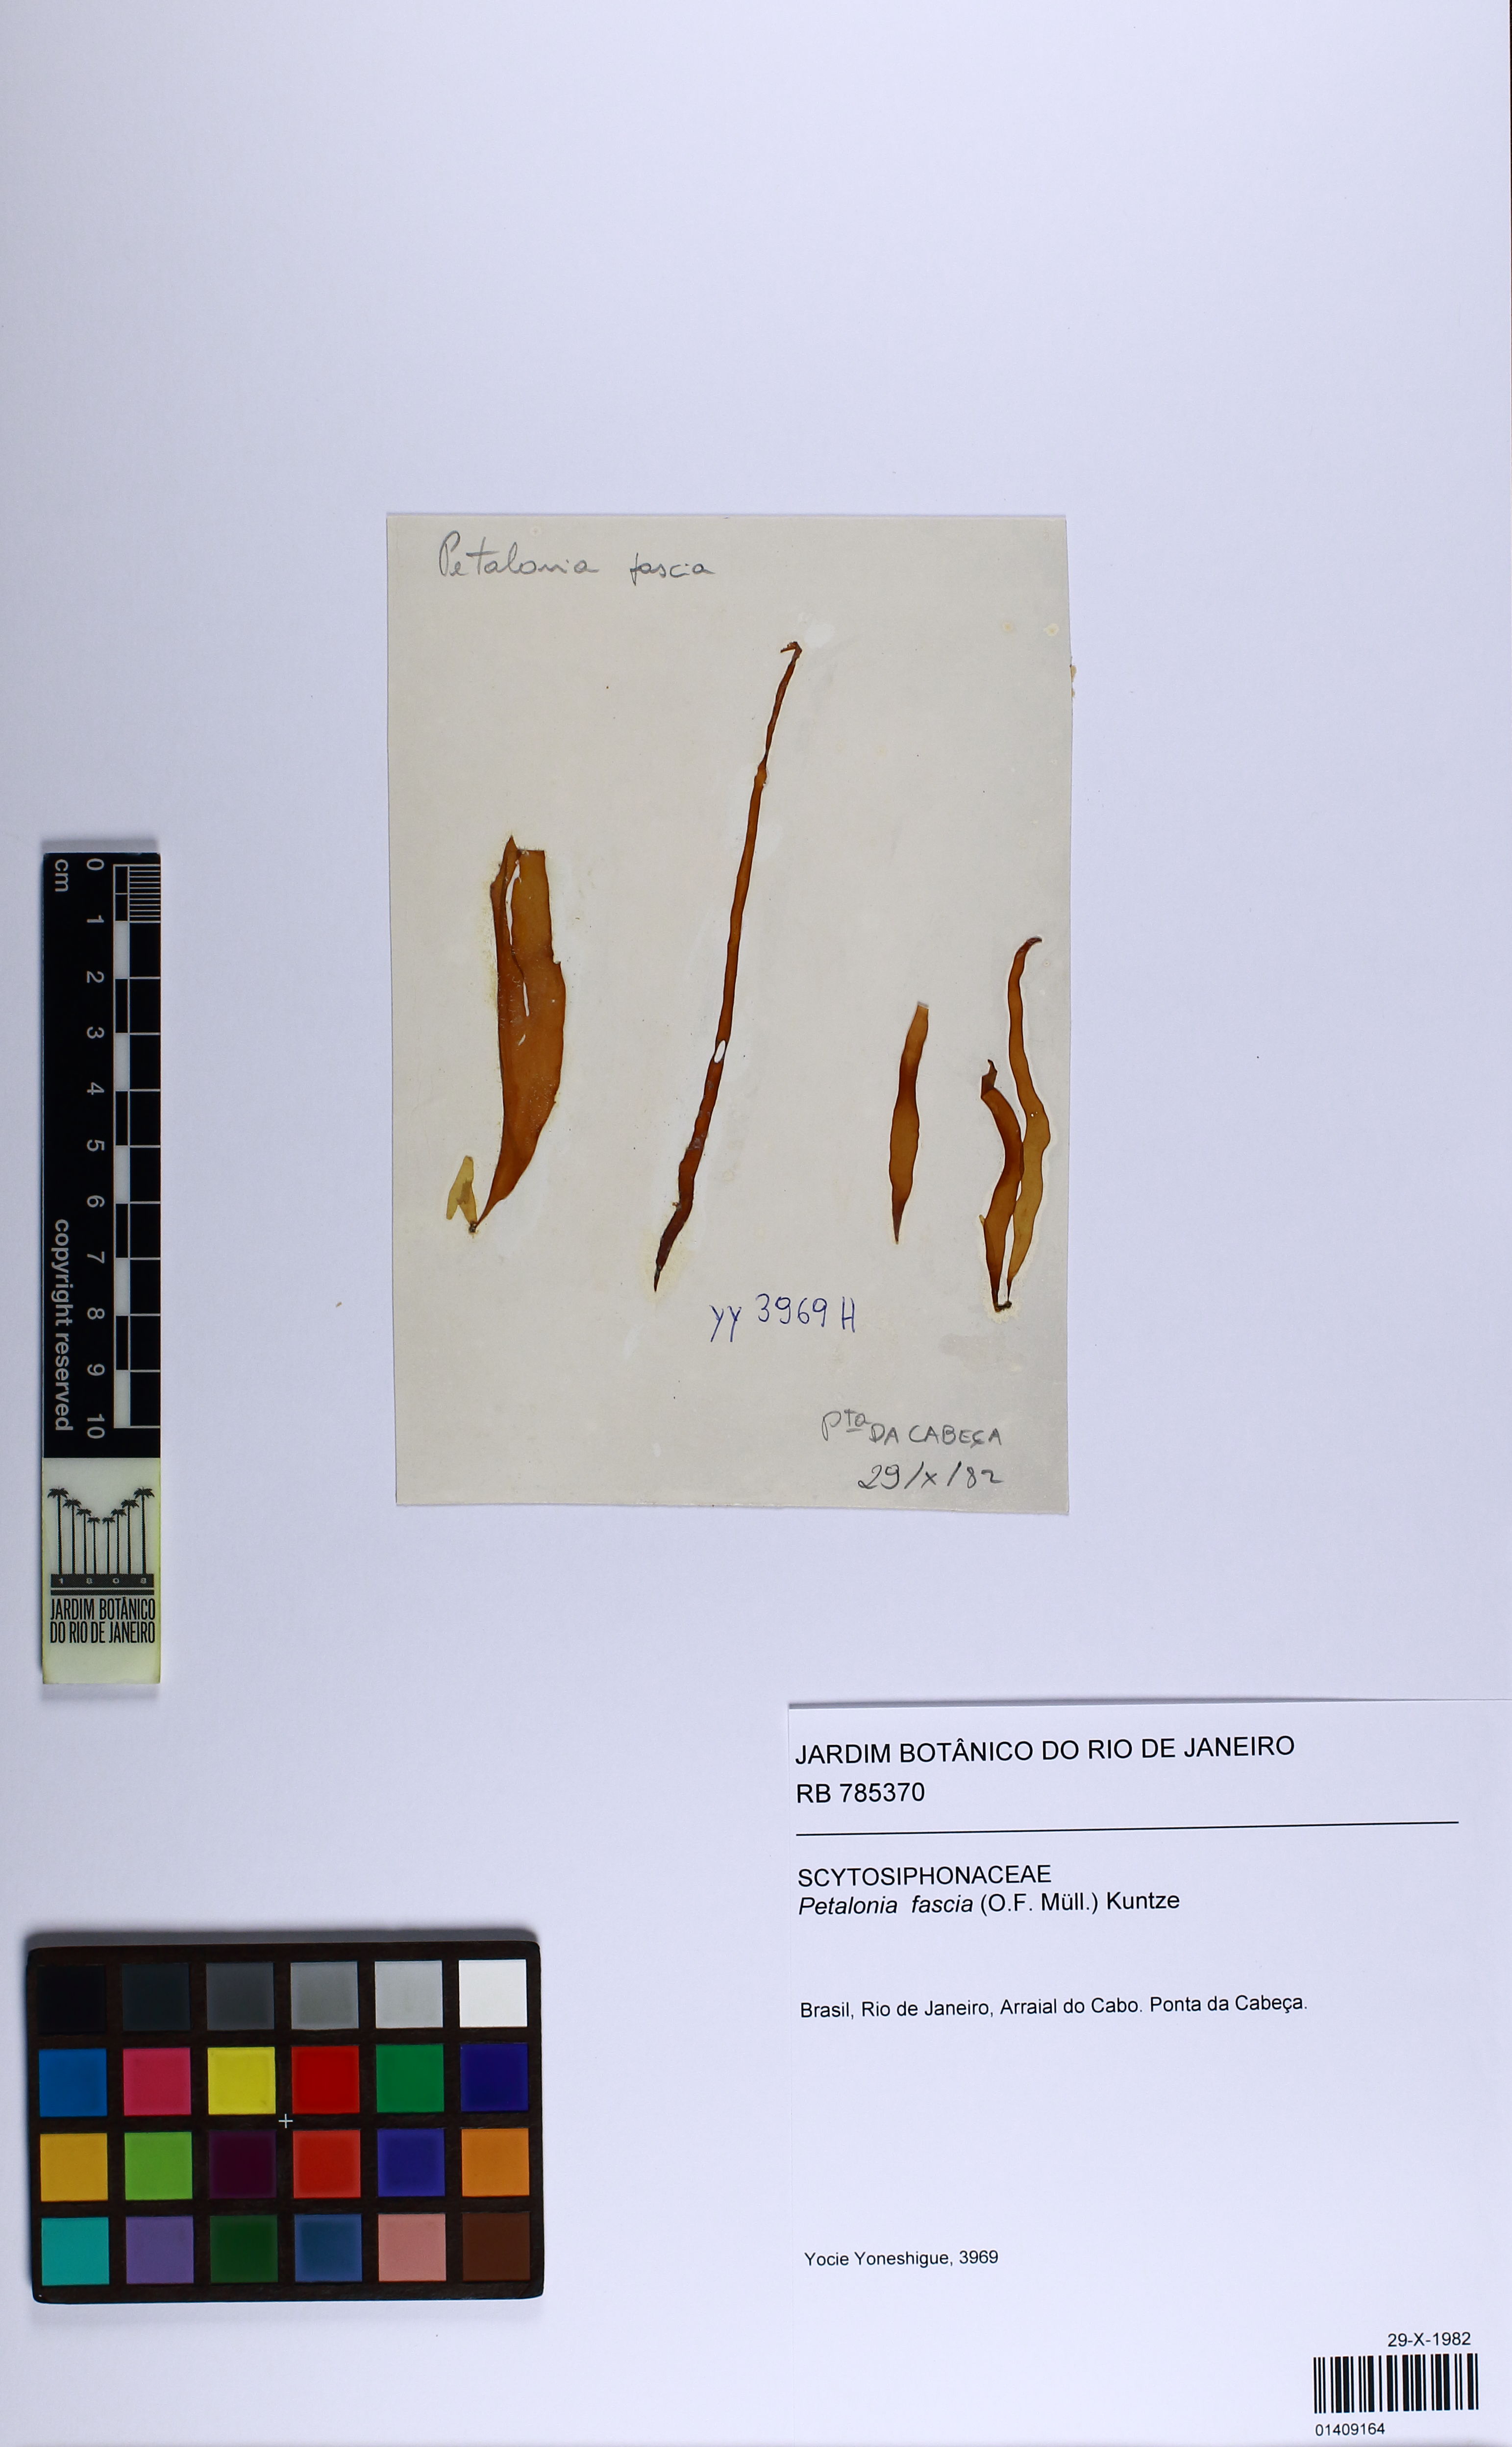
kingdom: Chromista
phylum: Ochrophyta
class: Phaeophyceae
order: Scytosiphonales
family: Scytosiphonaceae
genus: Petalonia
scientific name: Petalonia fascia
